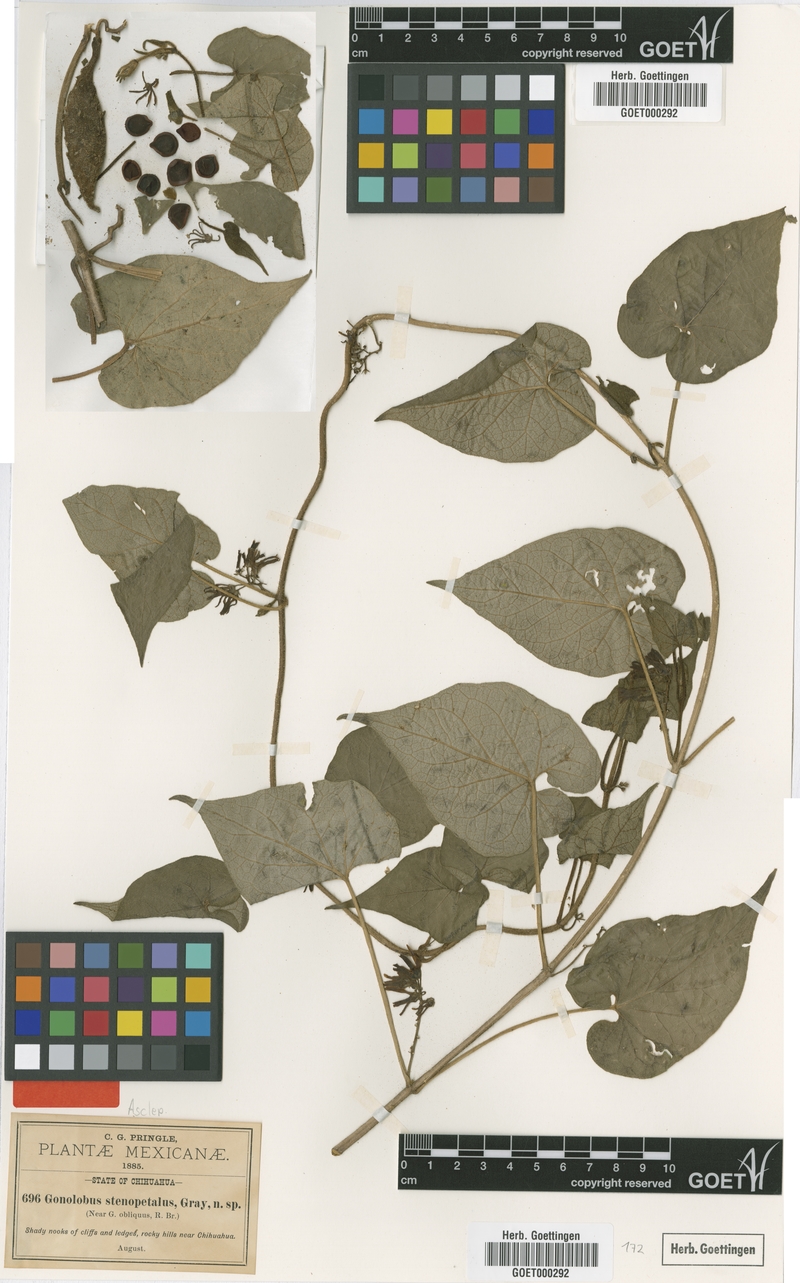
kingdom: Plantae
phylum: Tracheophyta
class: Magnoliopsida
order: Gentianales
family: Apocynaceae
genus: Matelea
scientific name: Matelea johnstonii
